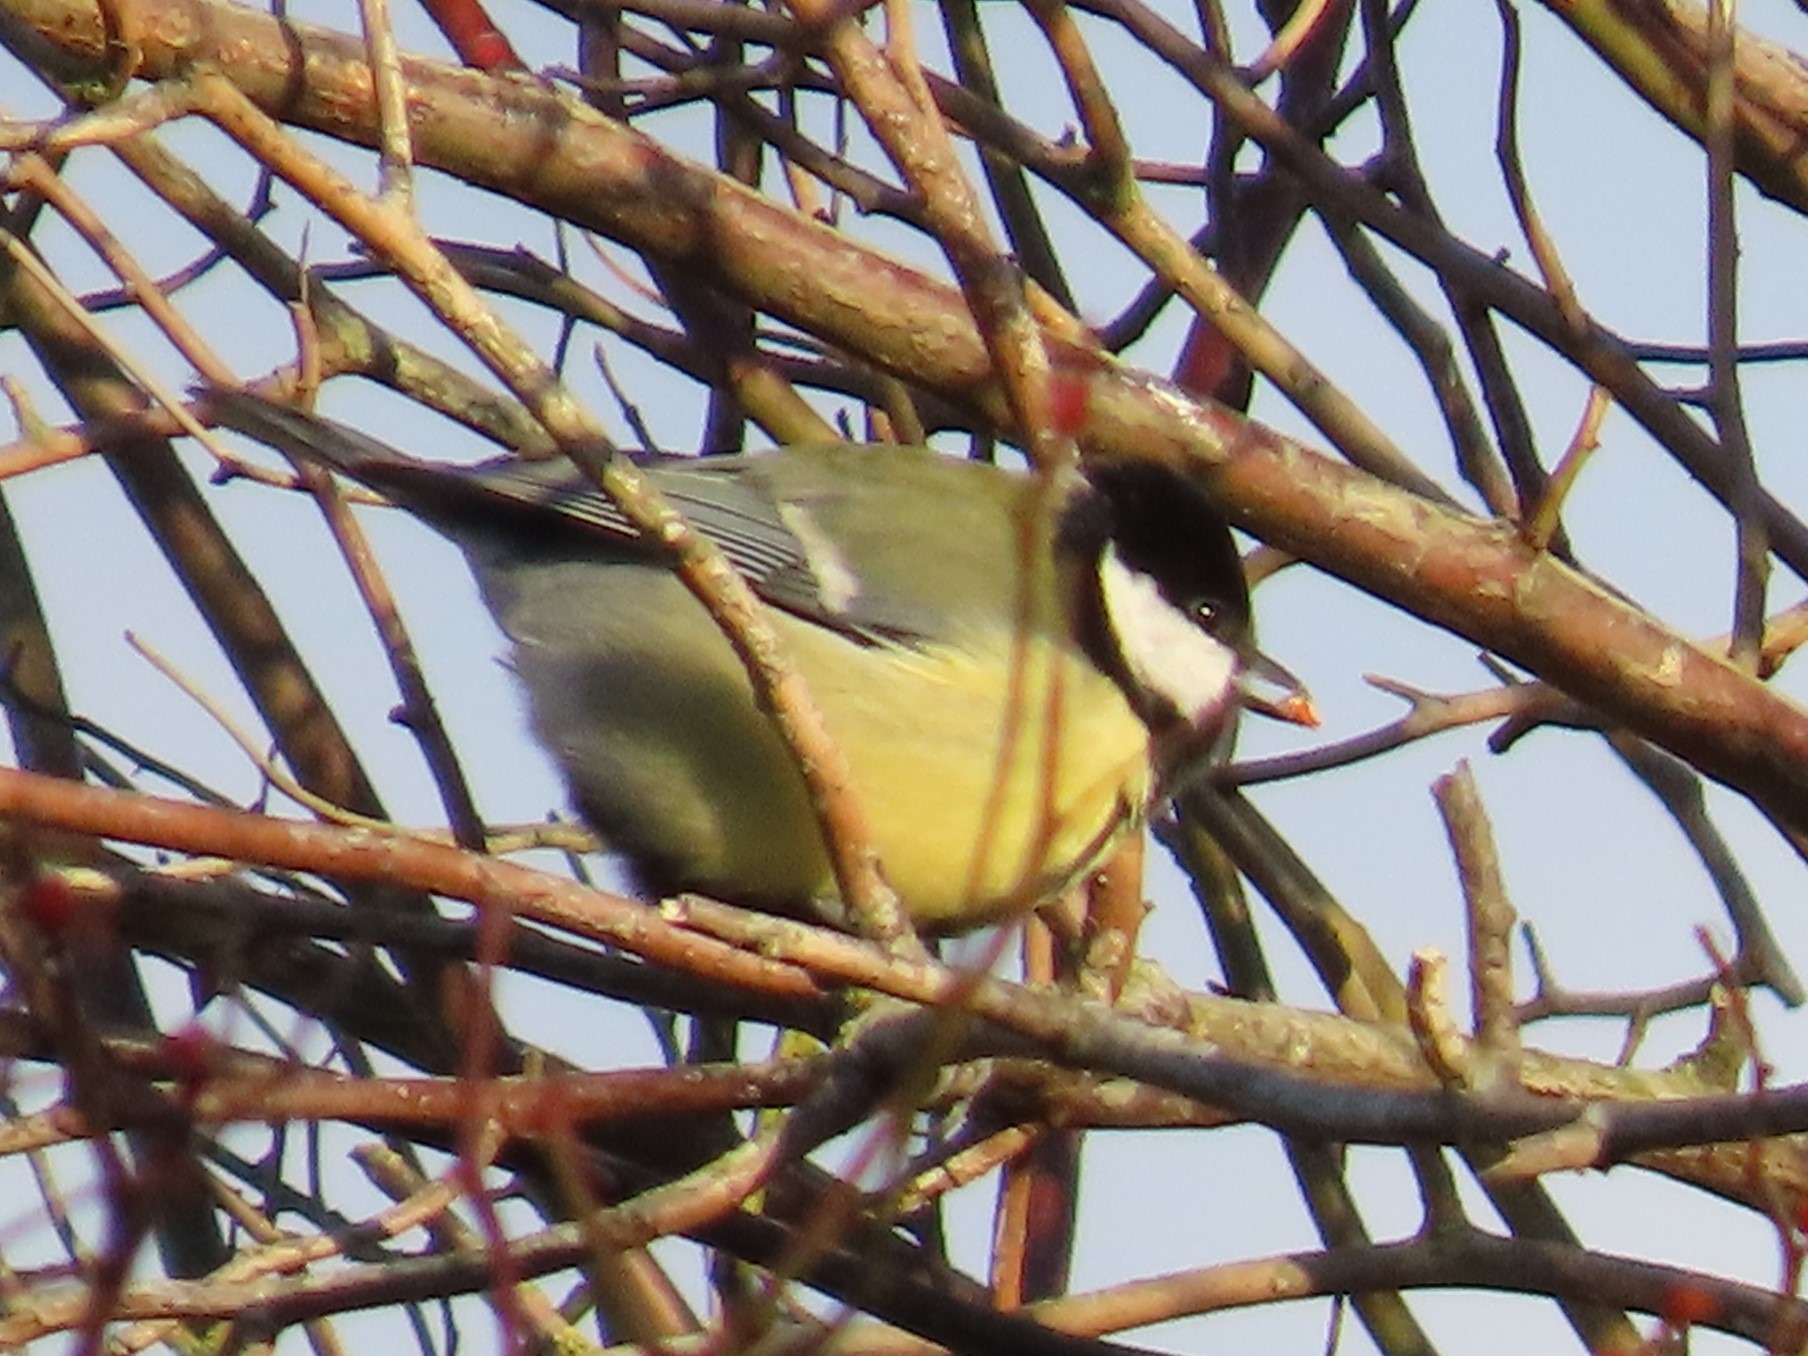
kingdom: Animalia
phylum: Chordata
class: Aves
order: Passeriformes
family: Paridae
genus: Parus
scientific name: Parus major
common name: Musvit
